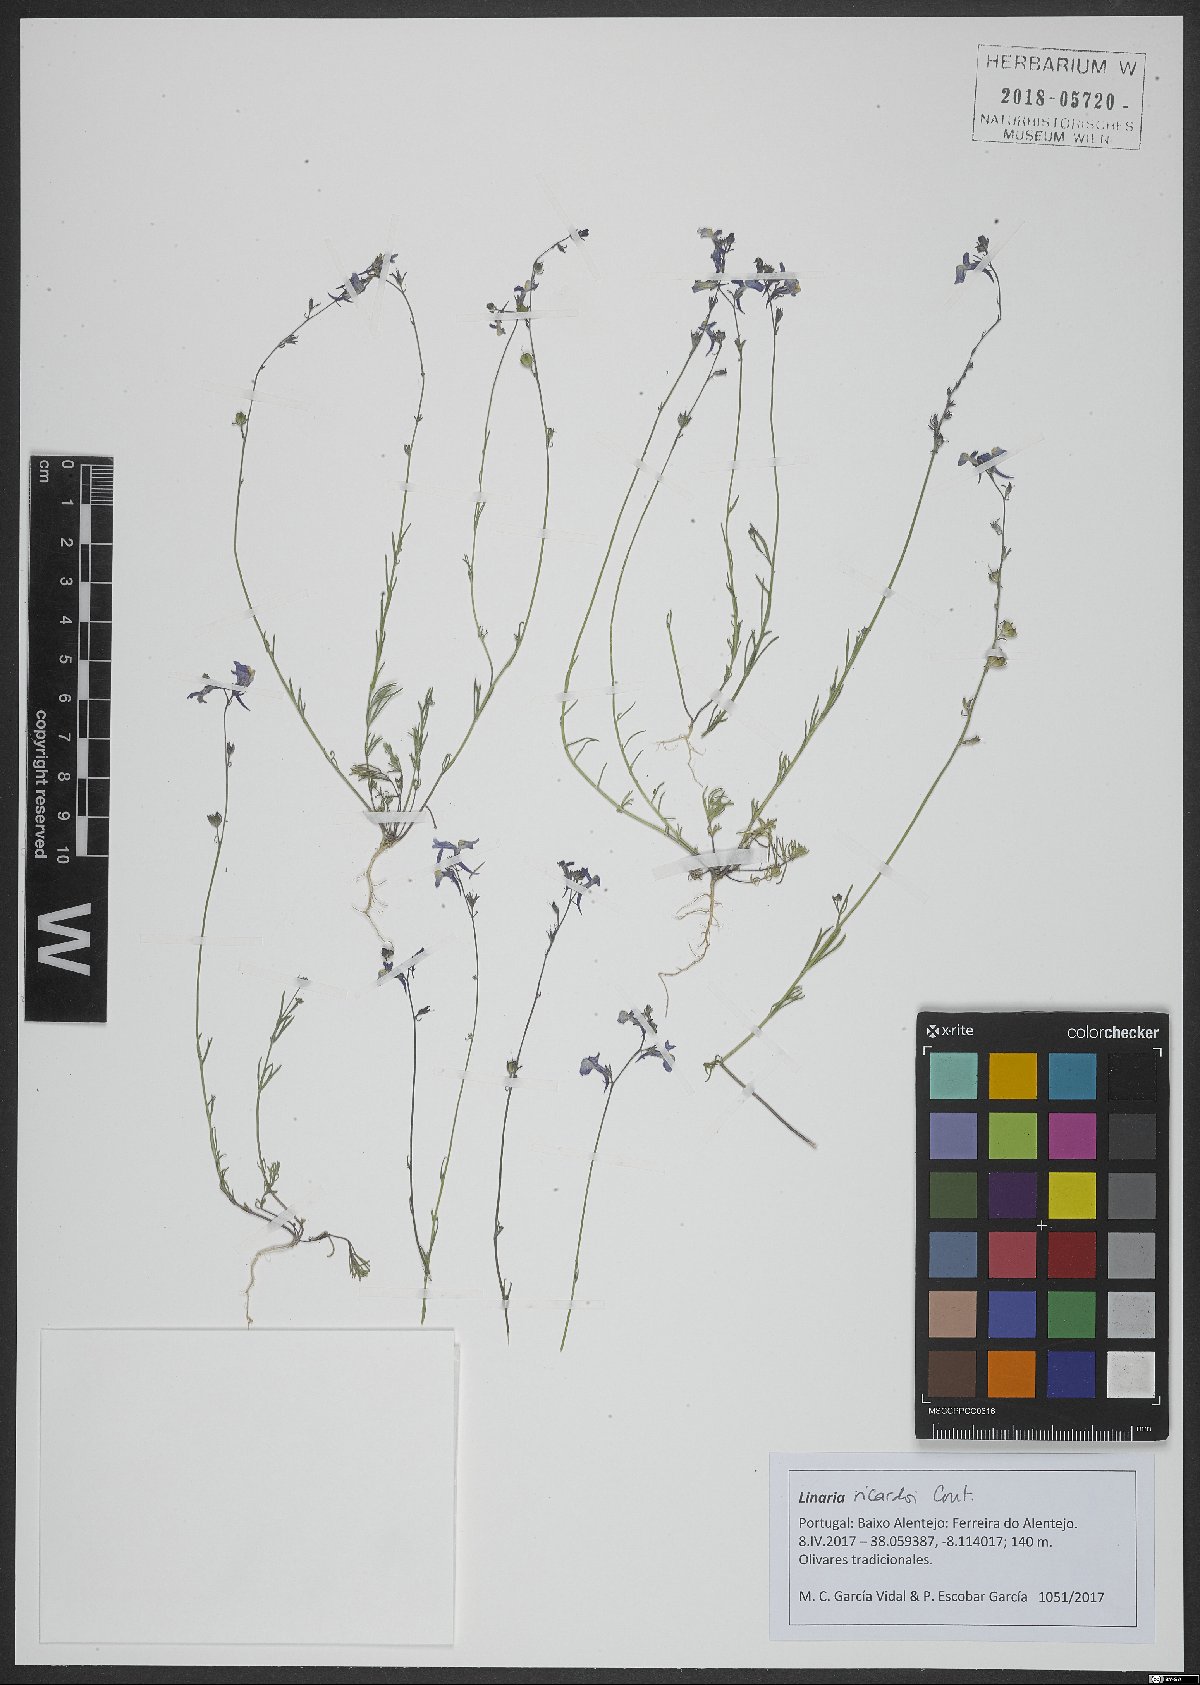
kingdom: Plantae
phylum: Tracheophyta
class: Magnoliopsida
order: Lamiales
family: Plantaginaceae
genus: Linaria
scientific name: Linaria ricardoi
